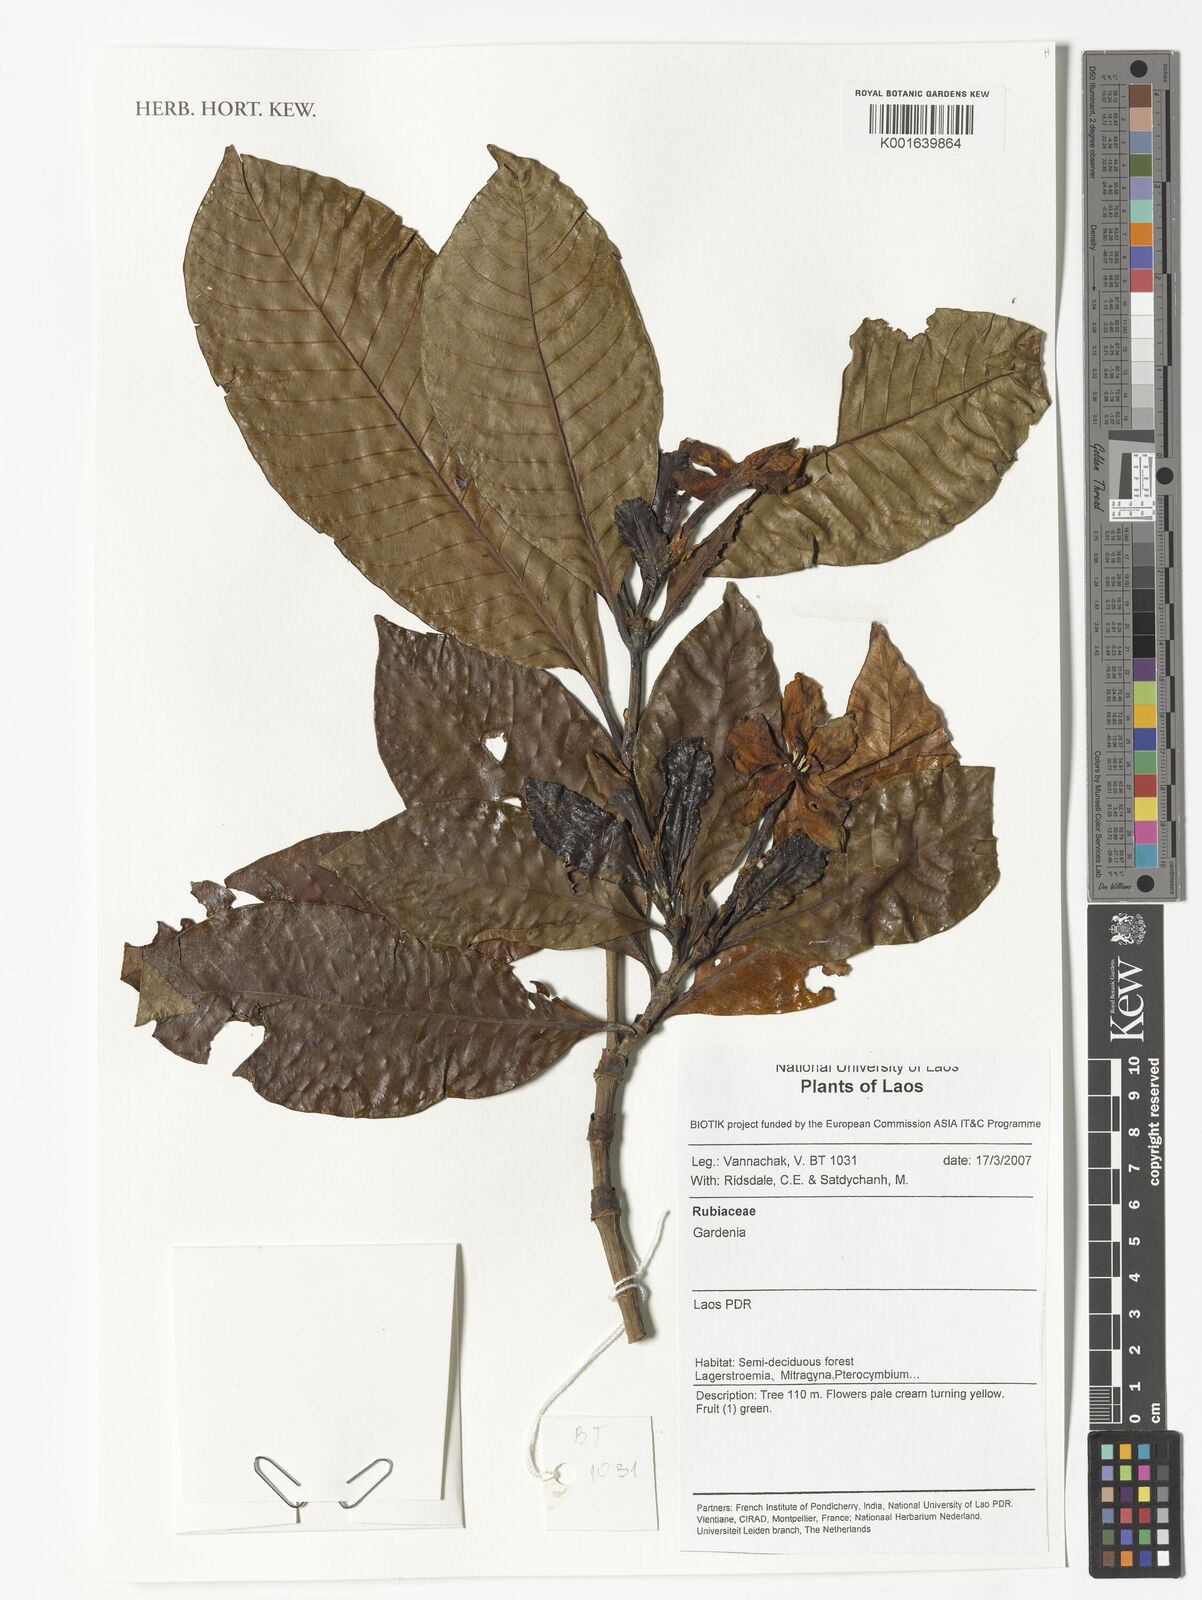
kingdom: Plantae
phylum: Tracheophyta
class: Magnoliopsida
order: Gentianales
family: Rubiaceae
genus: Gardenia
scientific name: Gardenia
